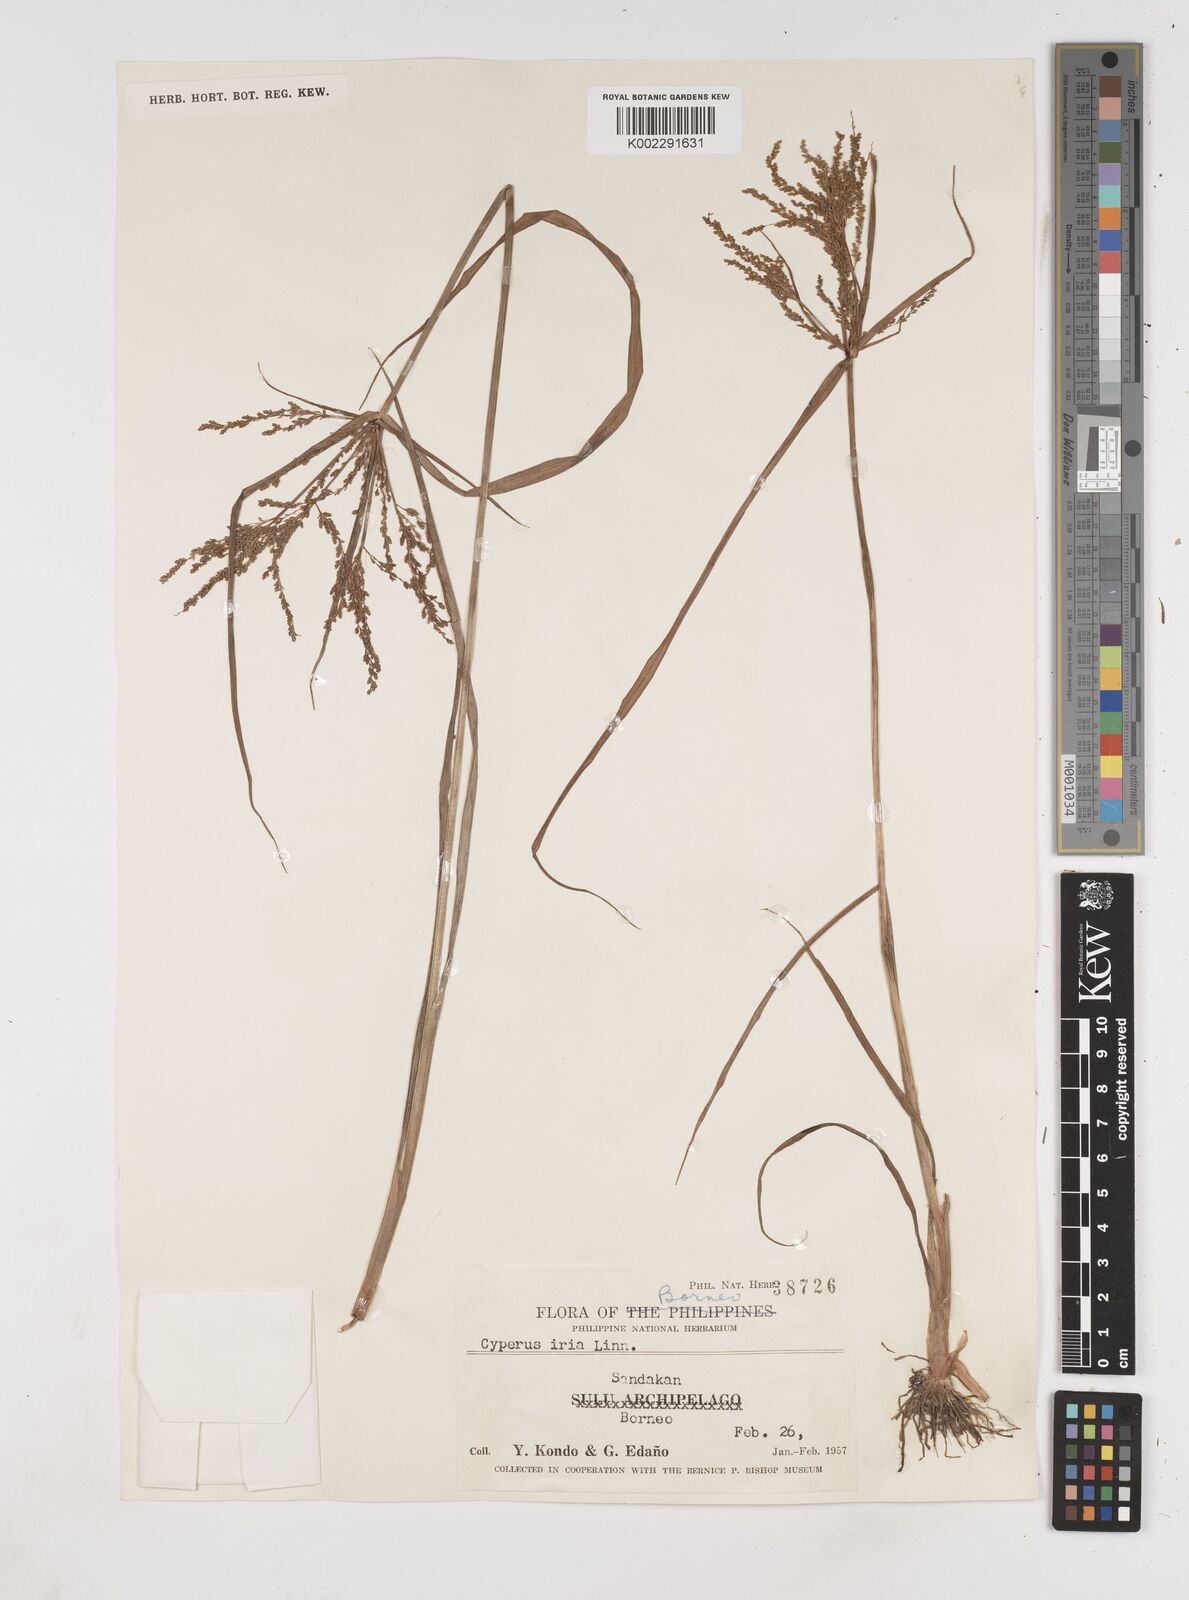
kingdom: Plantae
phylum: Tracheophyta
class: Liliopsida
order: Poales
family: Cyperaceae
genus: Cyperus
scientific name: Cyperus iria
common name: Ricefield flatsedge
